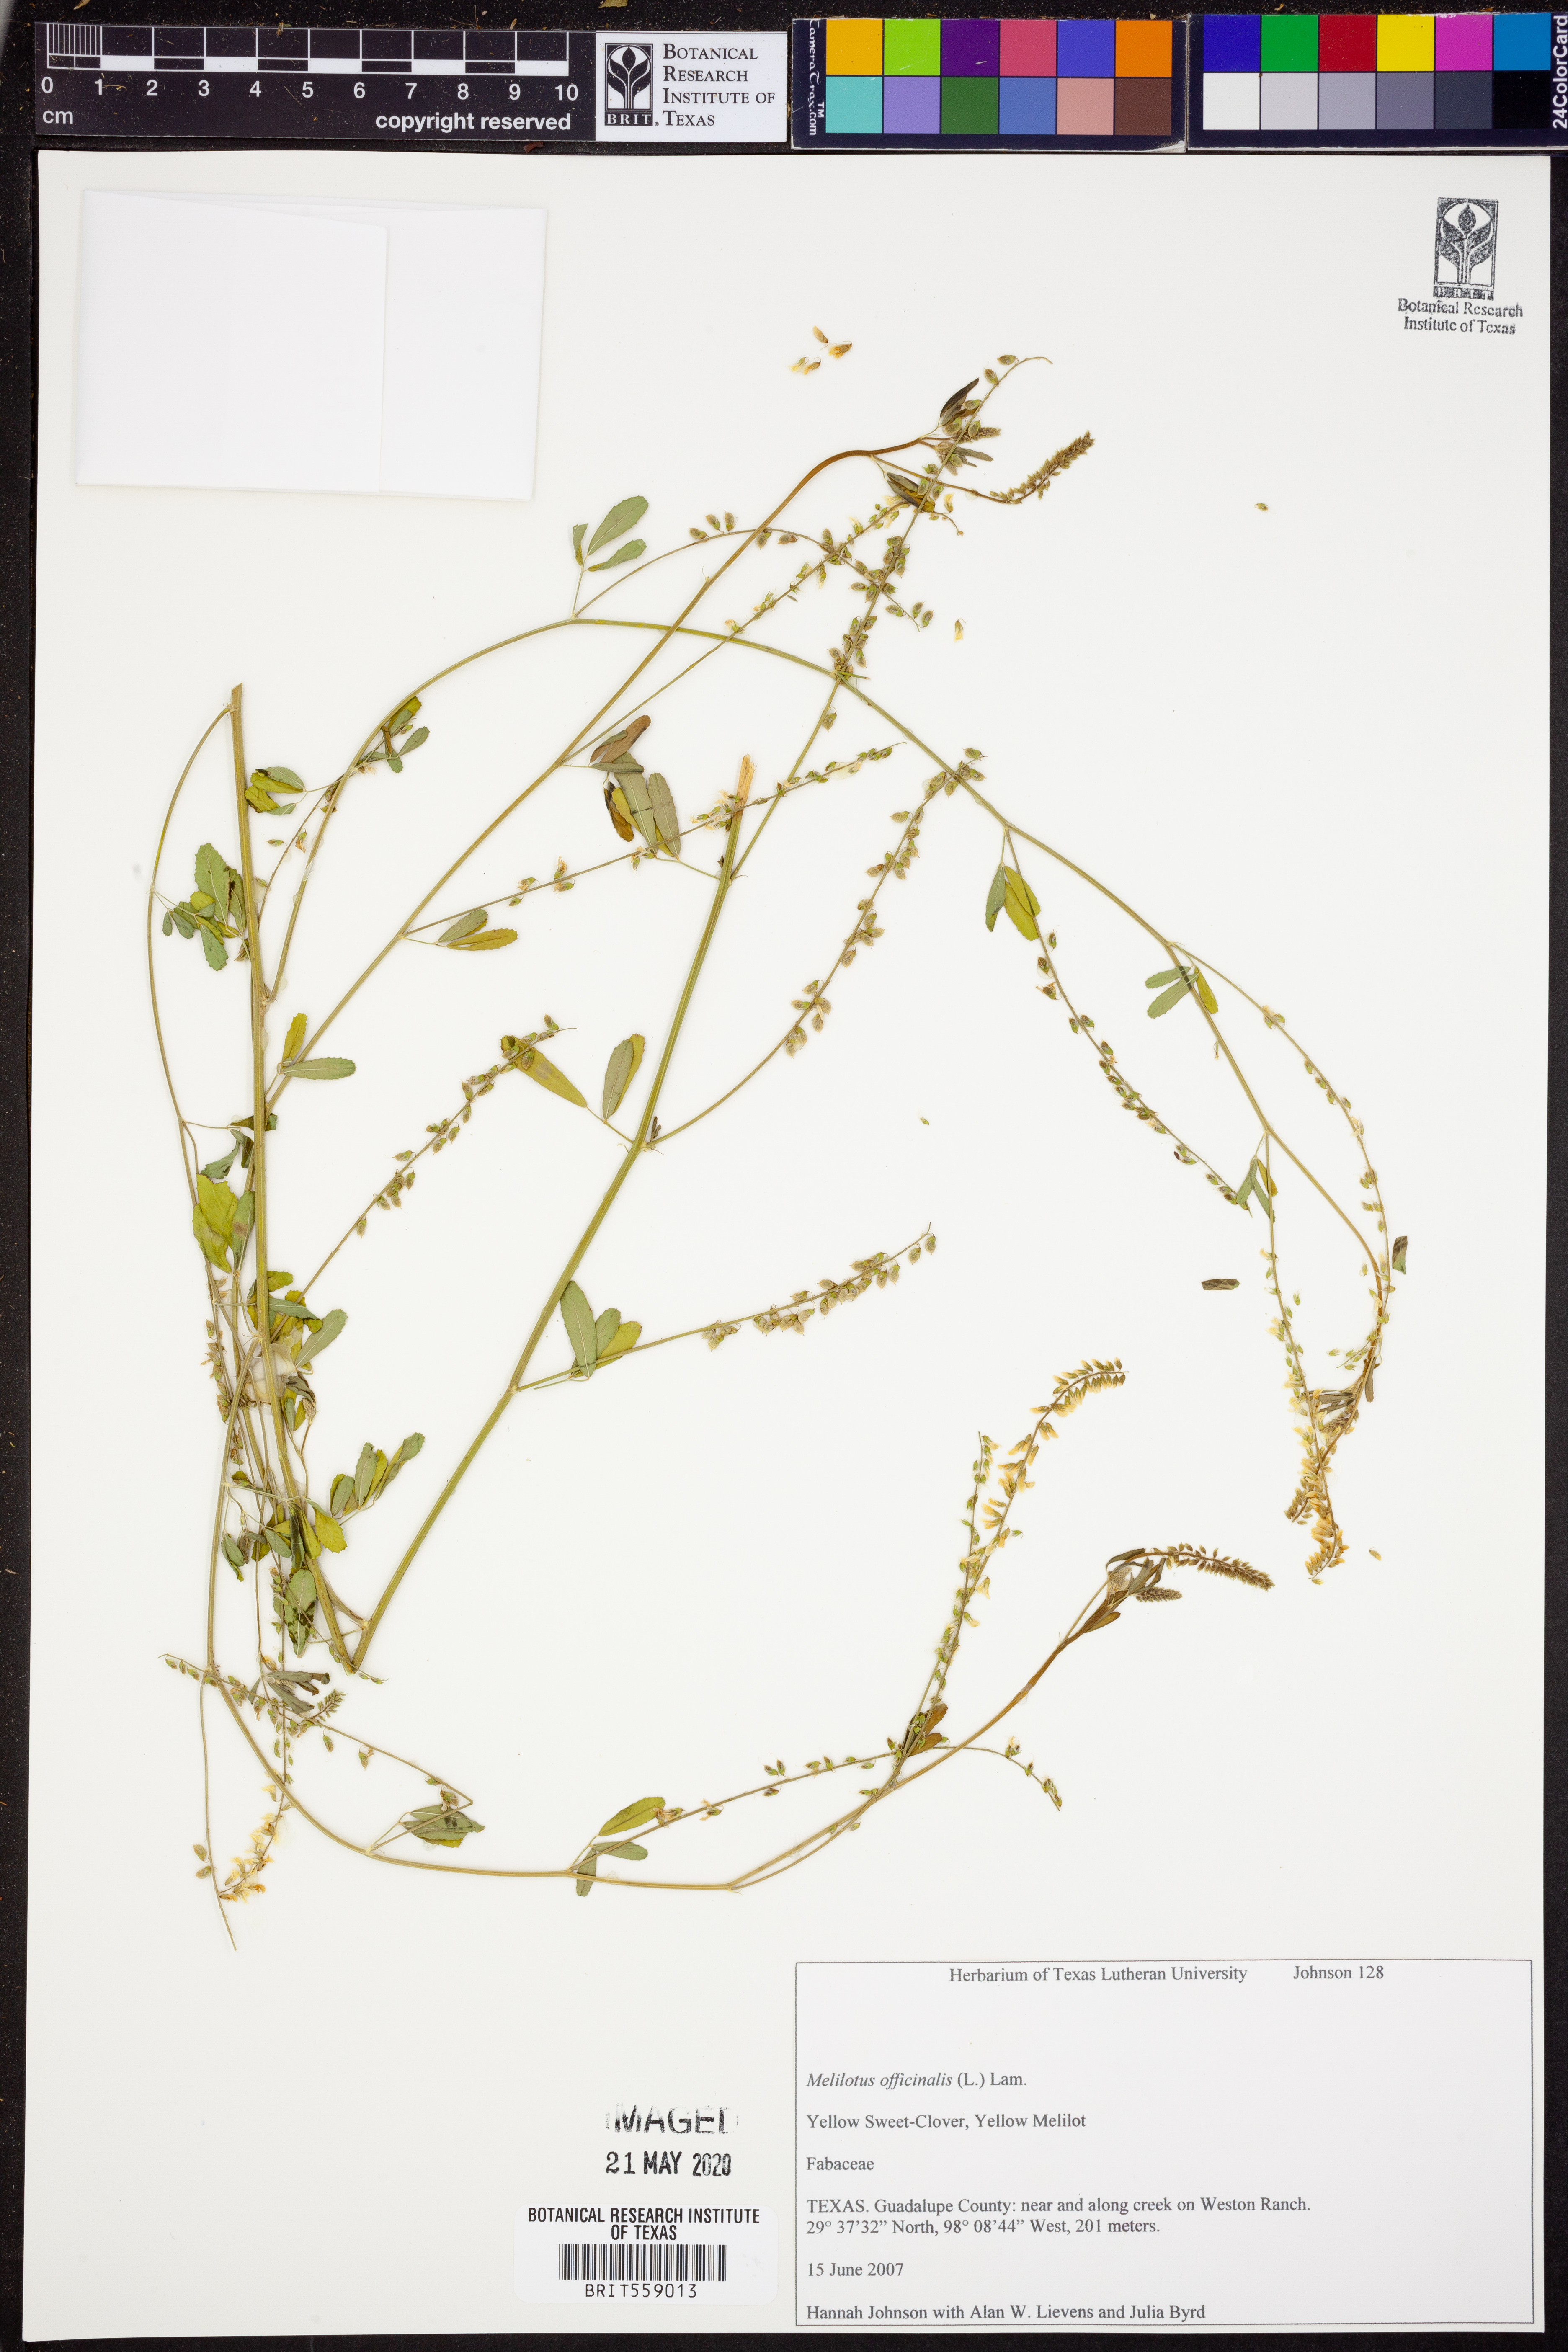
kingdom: Plantae
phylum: Tracheophyta
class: Magnoliopsida
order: Fabales
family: Fabaceae
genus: Melilotus
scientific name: Melilotus officinalis
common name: Sweetclover
